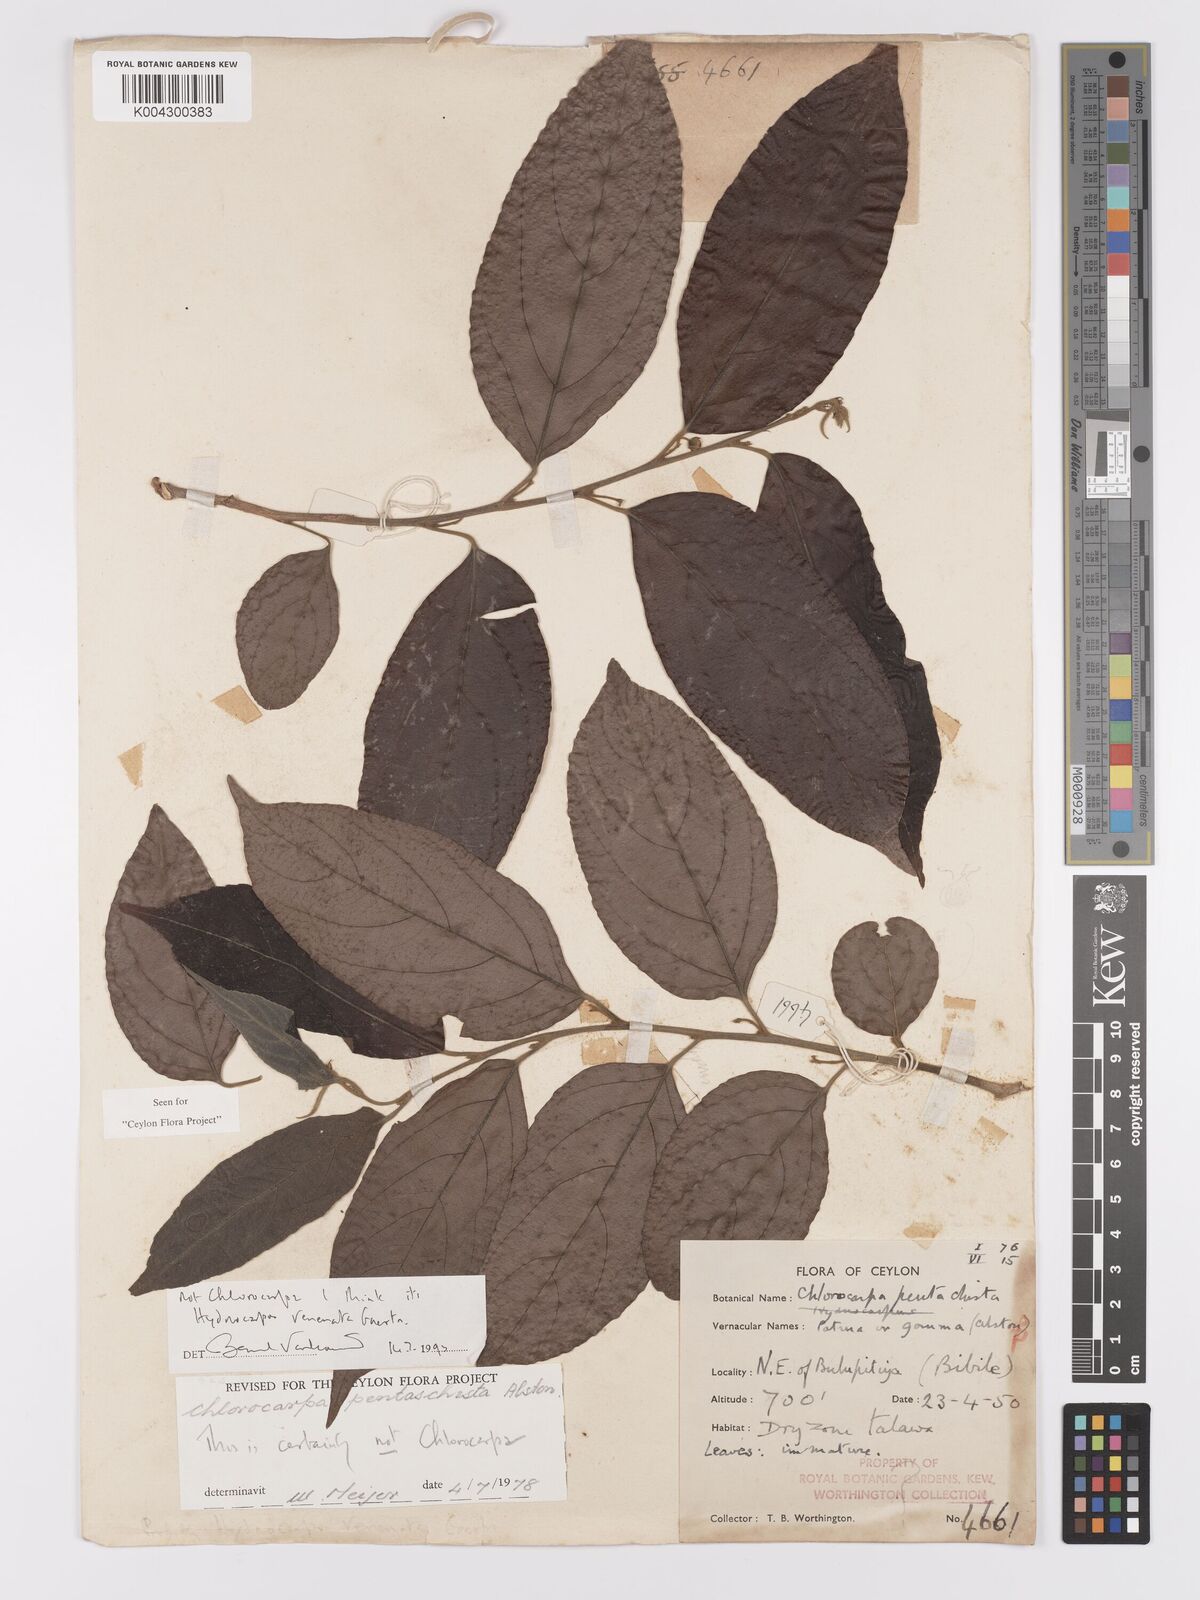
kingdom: Plantae
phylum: Tracheophyta
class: Magnoliopsida
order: Malpighiales
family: Achariaceae
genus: Hydnocarpus
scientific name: Hydnocarpus venenatus
